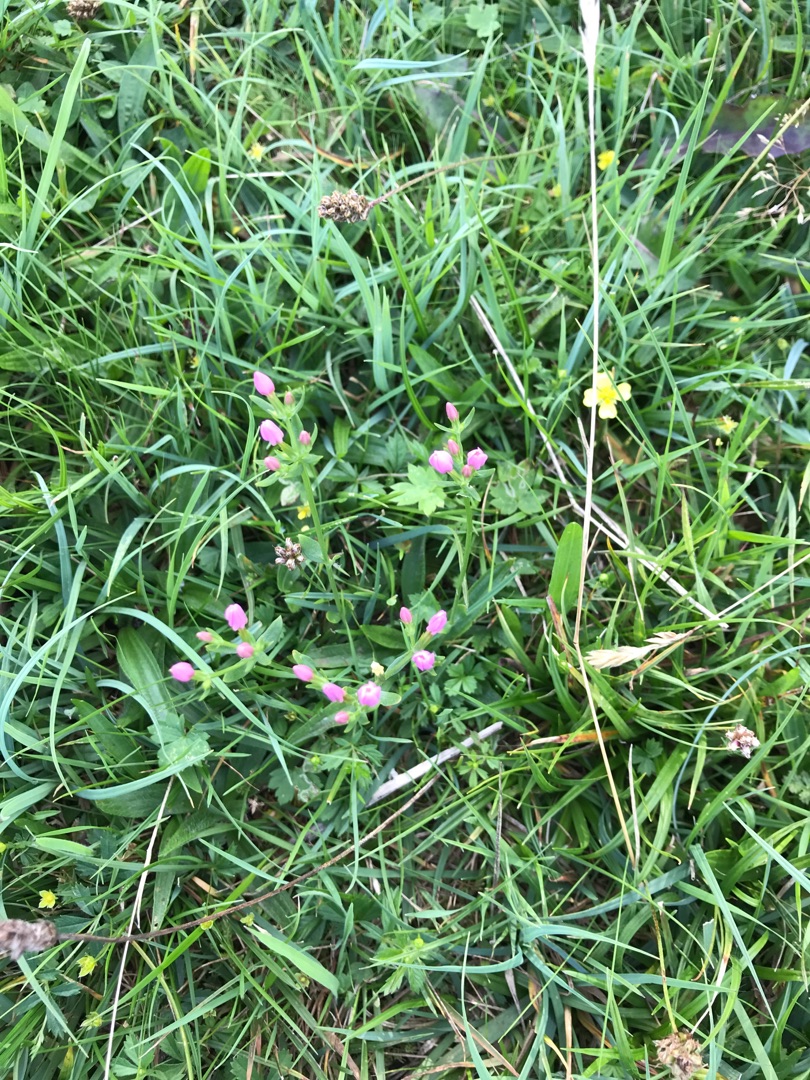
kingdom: Plantae
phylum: Tracheophyta
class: Magnoliopsida
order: Gentianales
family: Gentianaceae
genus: Centaurium
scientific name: Centaurium erythraea
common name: Mark-tusindgylden
